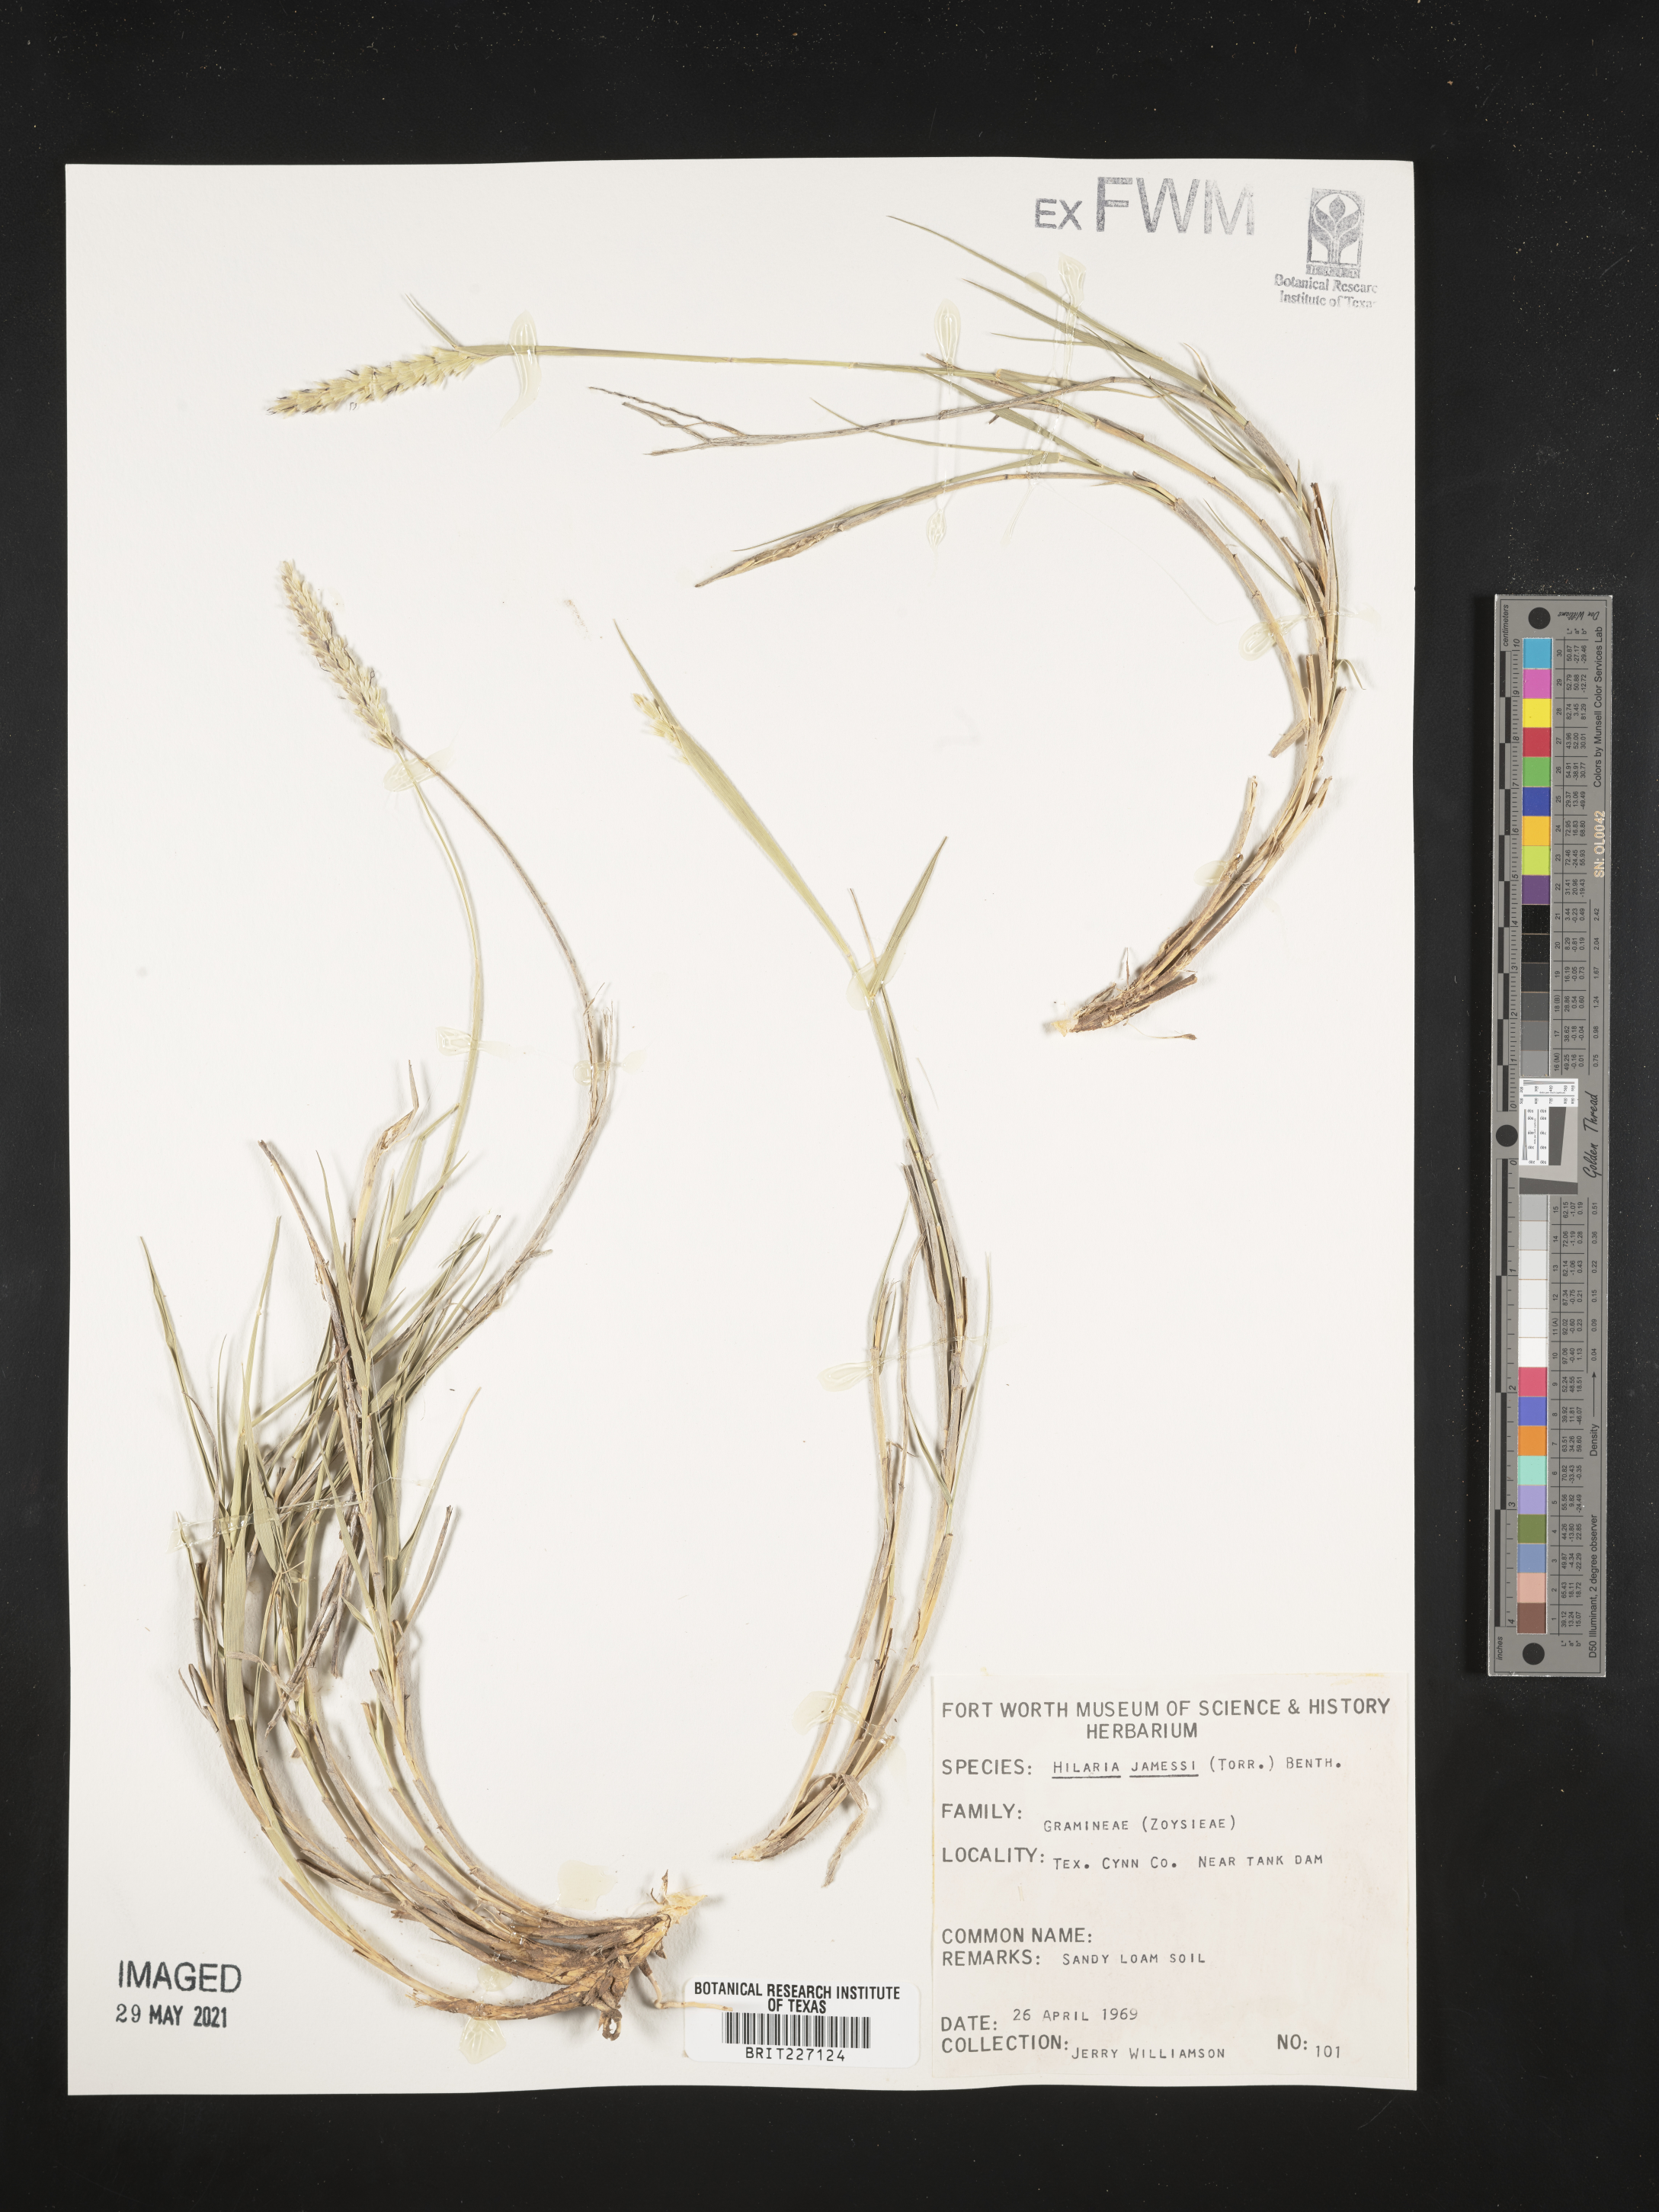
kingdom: Plantae
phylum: Tracheophyta
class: Liliopsida
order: Poales
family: Poaceae
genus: Hilaria
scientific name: Hilaria jamesii
